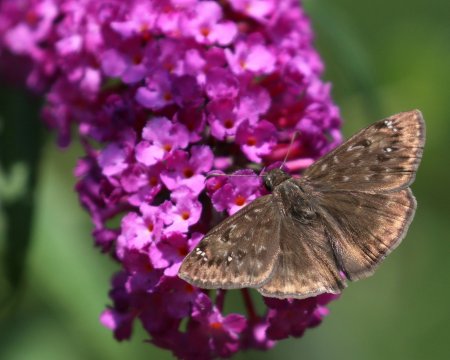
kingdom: Animalia
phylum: Arthropoda
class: Insecta
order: Lepidoptera
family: Hesperiidae
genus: Gesta
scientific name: Gesta
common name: Horace's Duskywing
